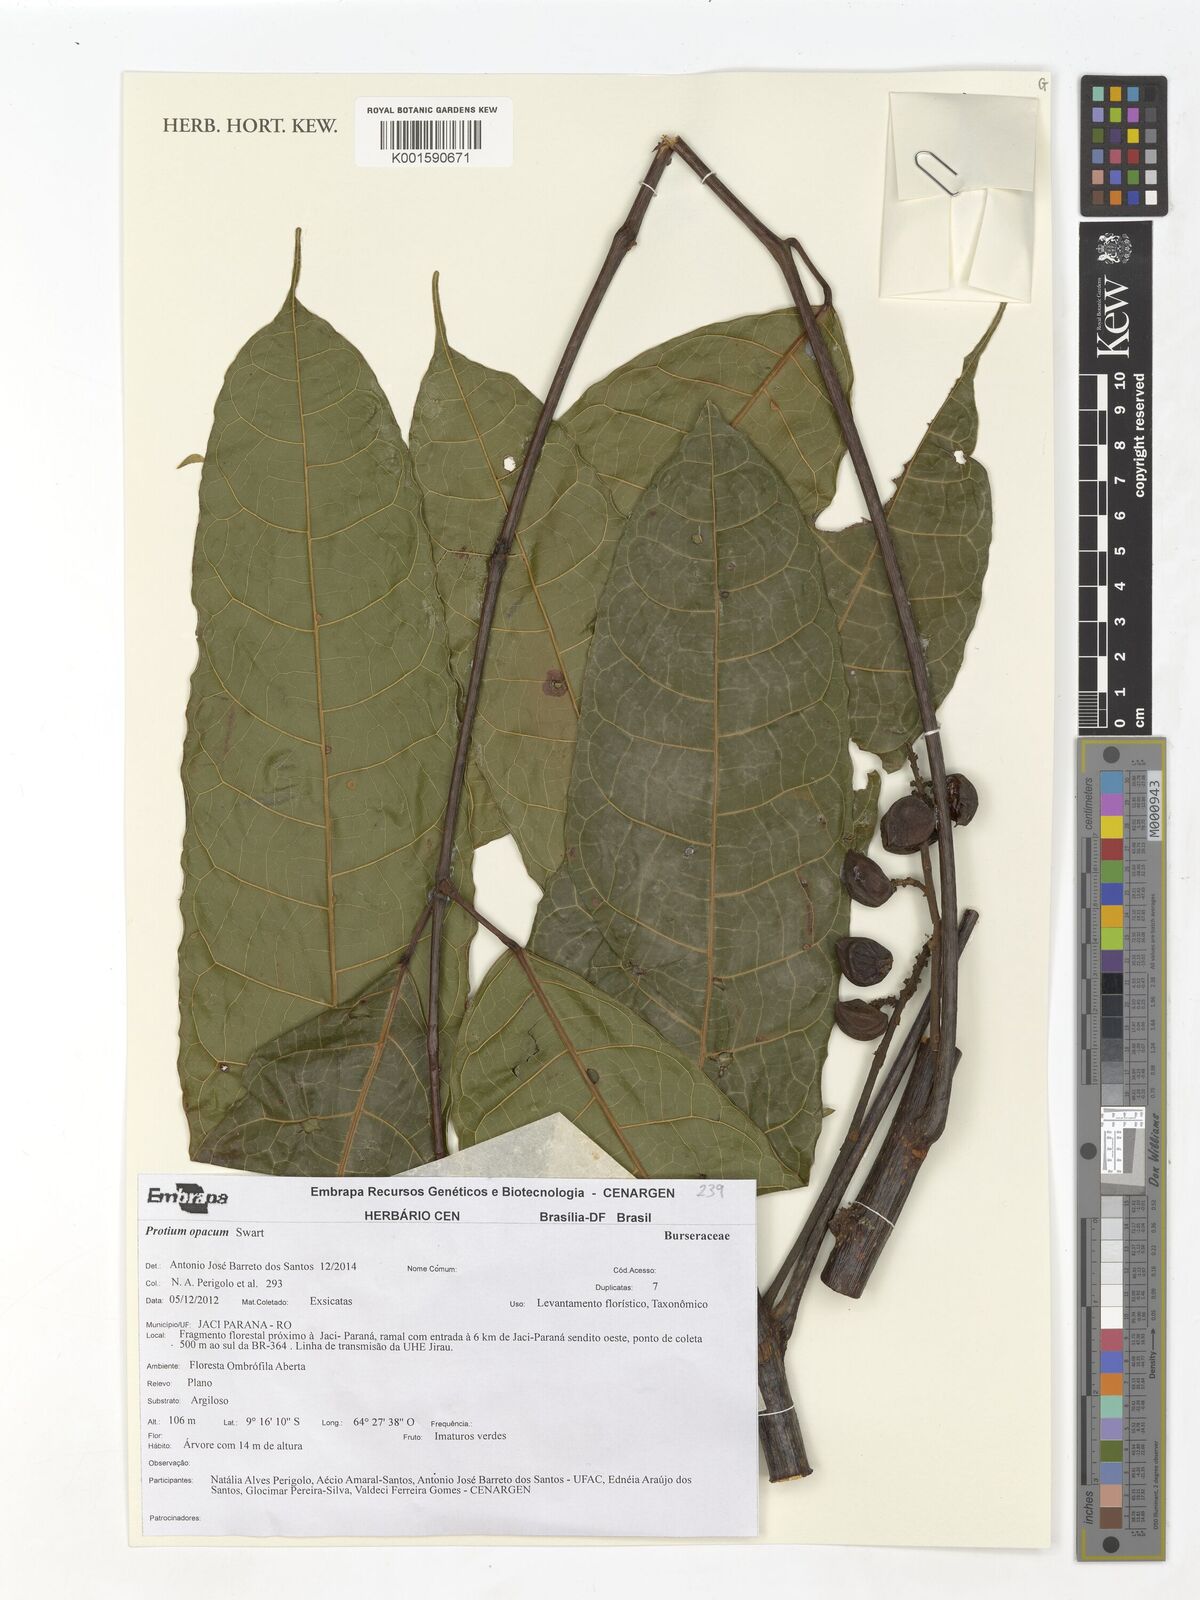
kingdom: Plantae
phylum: Tracheophyta
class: Magnoliopsida
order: Sapindales
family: Burseraceae
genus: Protium
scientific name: Protium opacum
